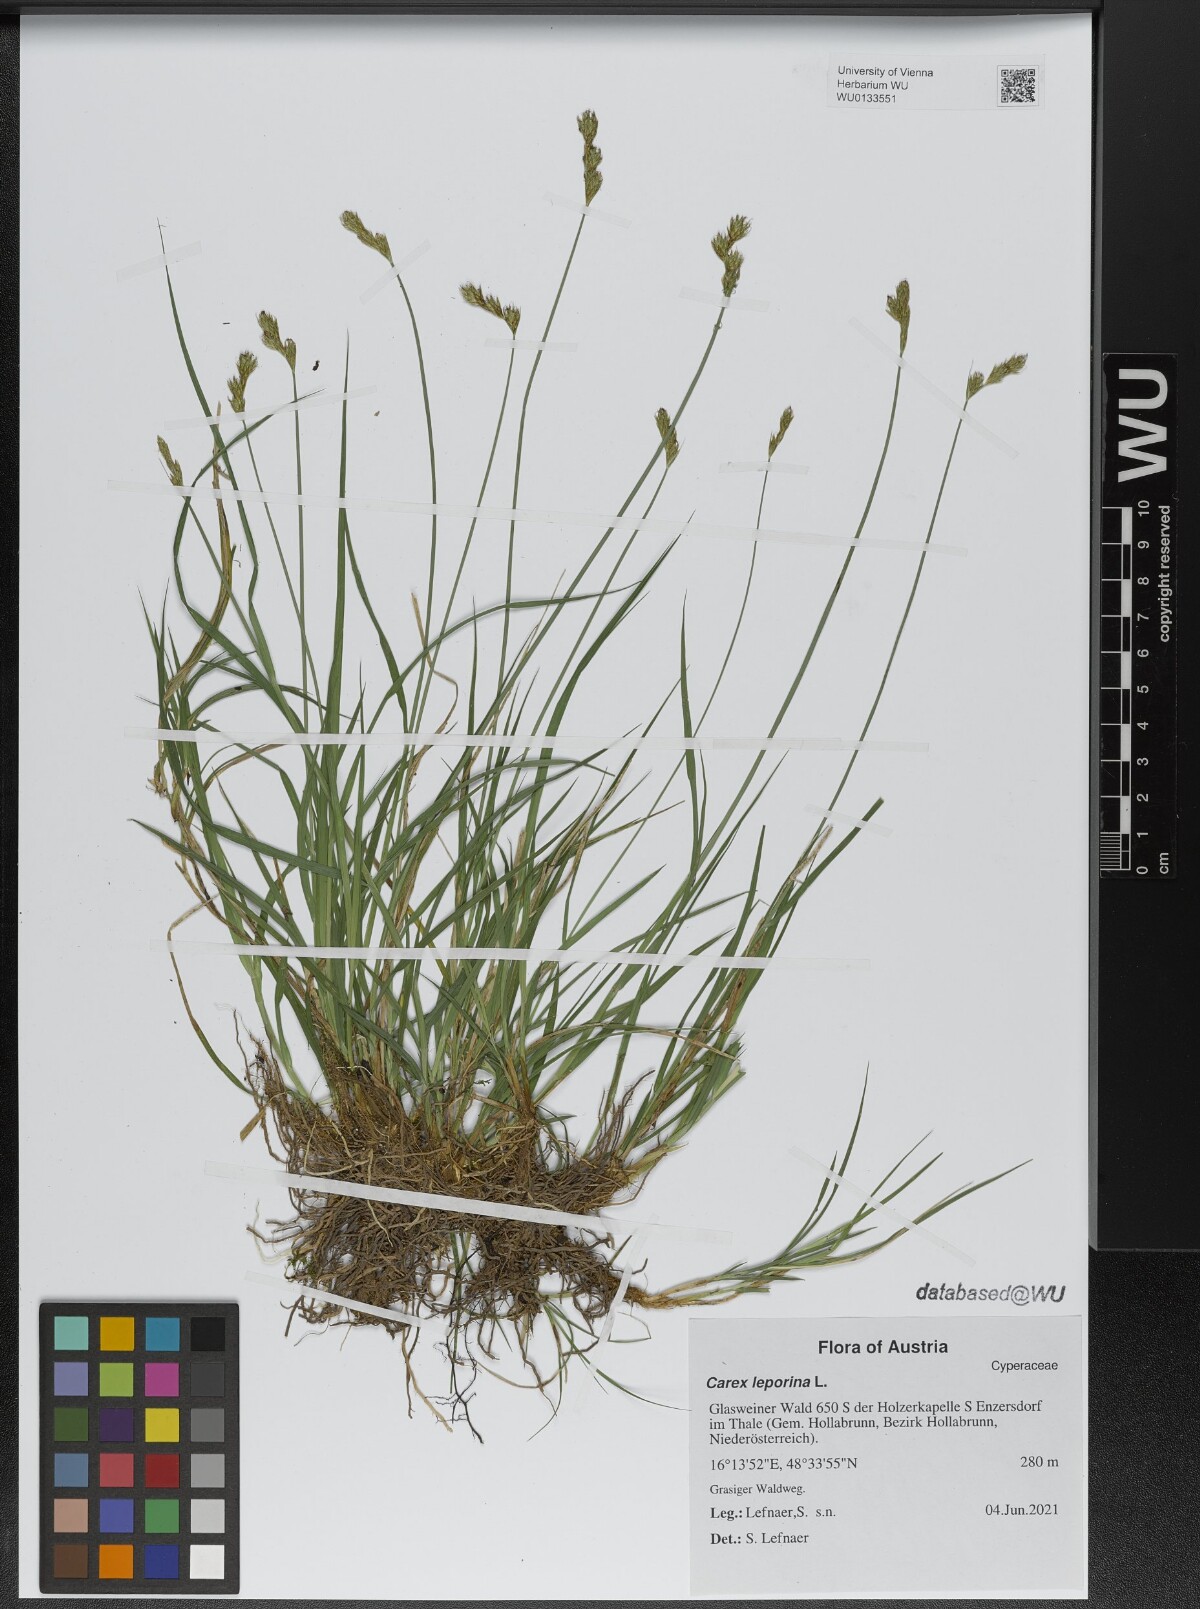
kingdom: Plantae
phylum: Tracheophyta
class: Liliopsida
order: Poales
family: Cyperaceae
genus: Carex
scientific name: Carex leporina
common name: Oval sedge
